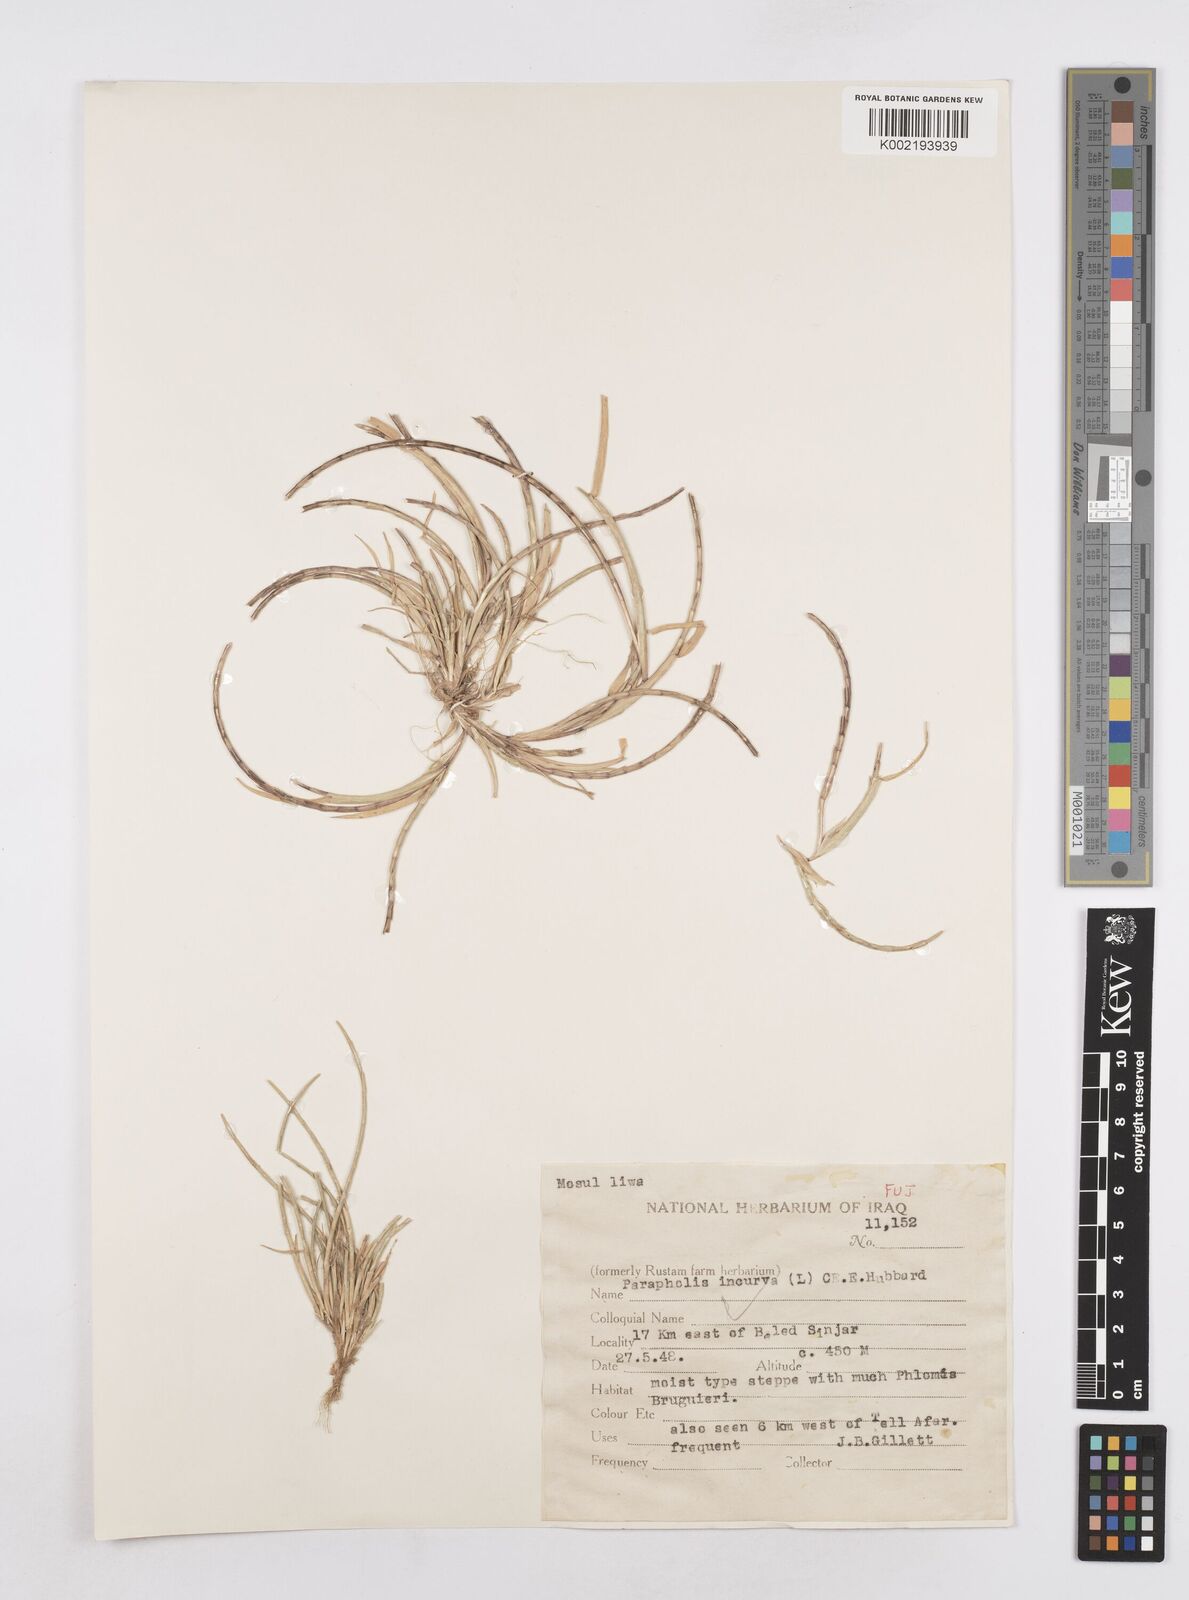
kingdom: Plantae
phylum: Tracheophyta
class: Liliopsida
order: Poales
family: Poaceae
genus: Parapholis
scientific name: Parapholis incurva
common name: Curved sicklegrass
